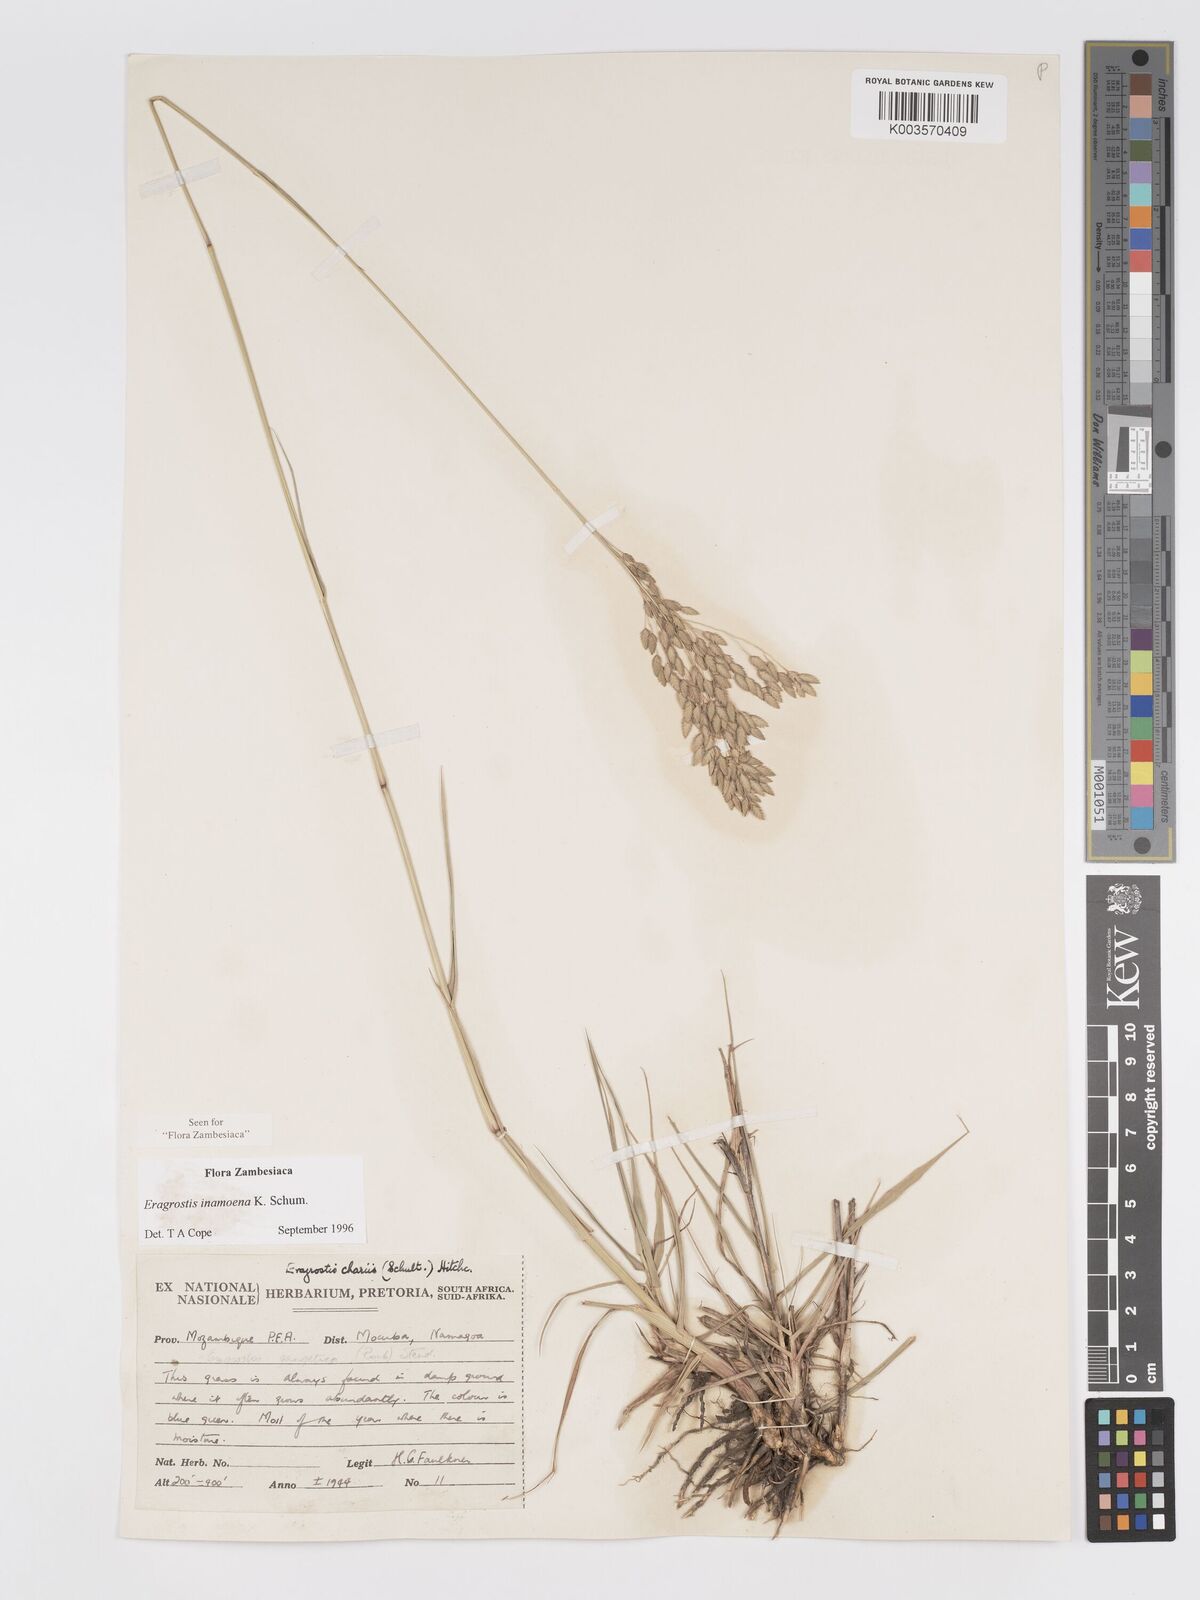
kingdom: Plantae
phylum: Tracheophyta
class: Liliopsida
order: Poales
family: Poaceae
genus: Eragrostis
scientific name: Eragrostis inamoena
